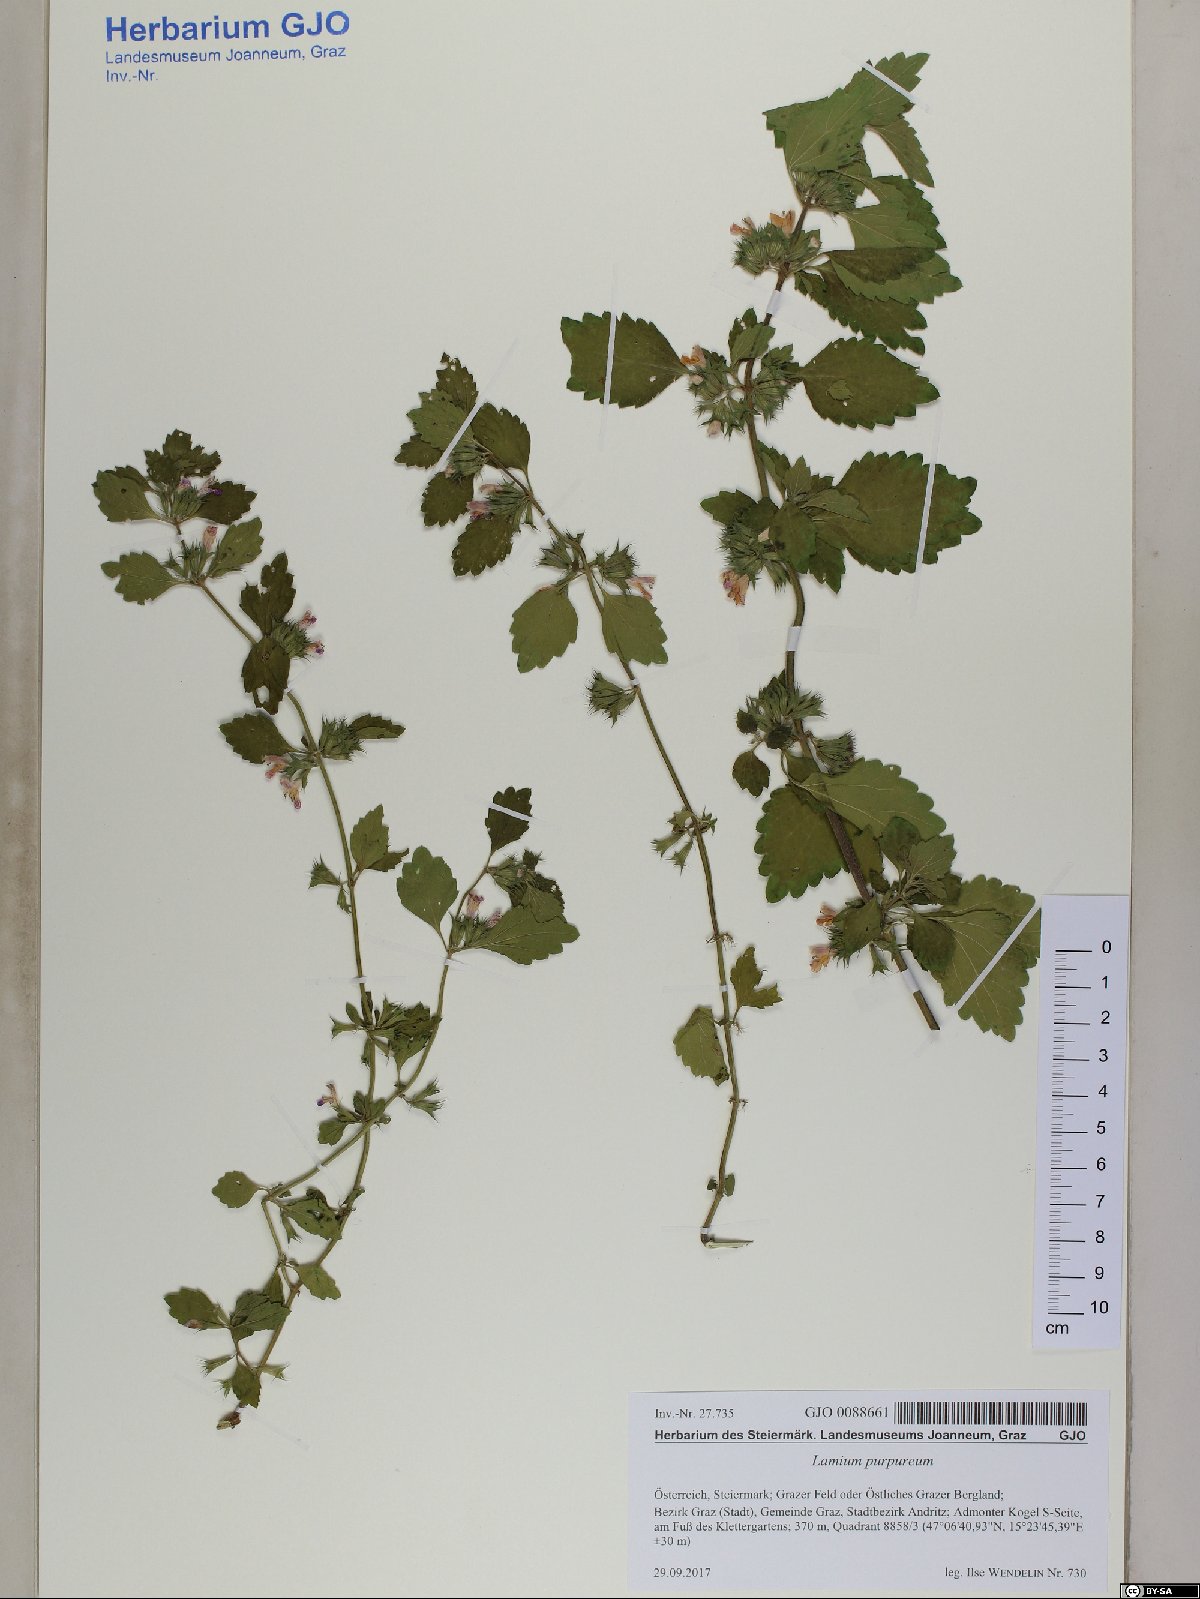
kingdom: Plantae
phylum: Tracheophyta
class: Magnoliopsida
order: Lamiales
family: Lamiaceae
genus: Ballota
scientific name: Ballota nigra
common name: Black horehound
